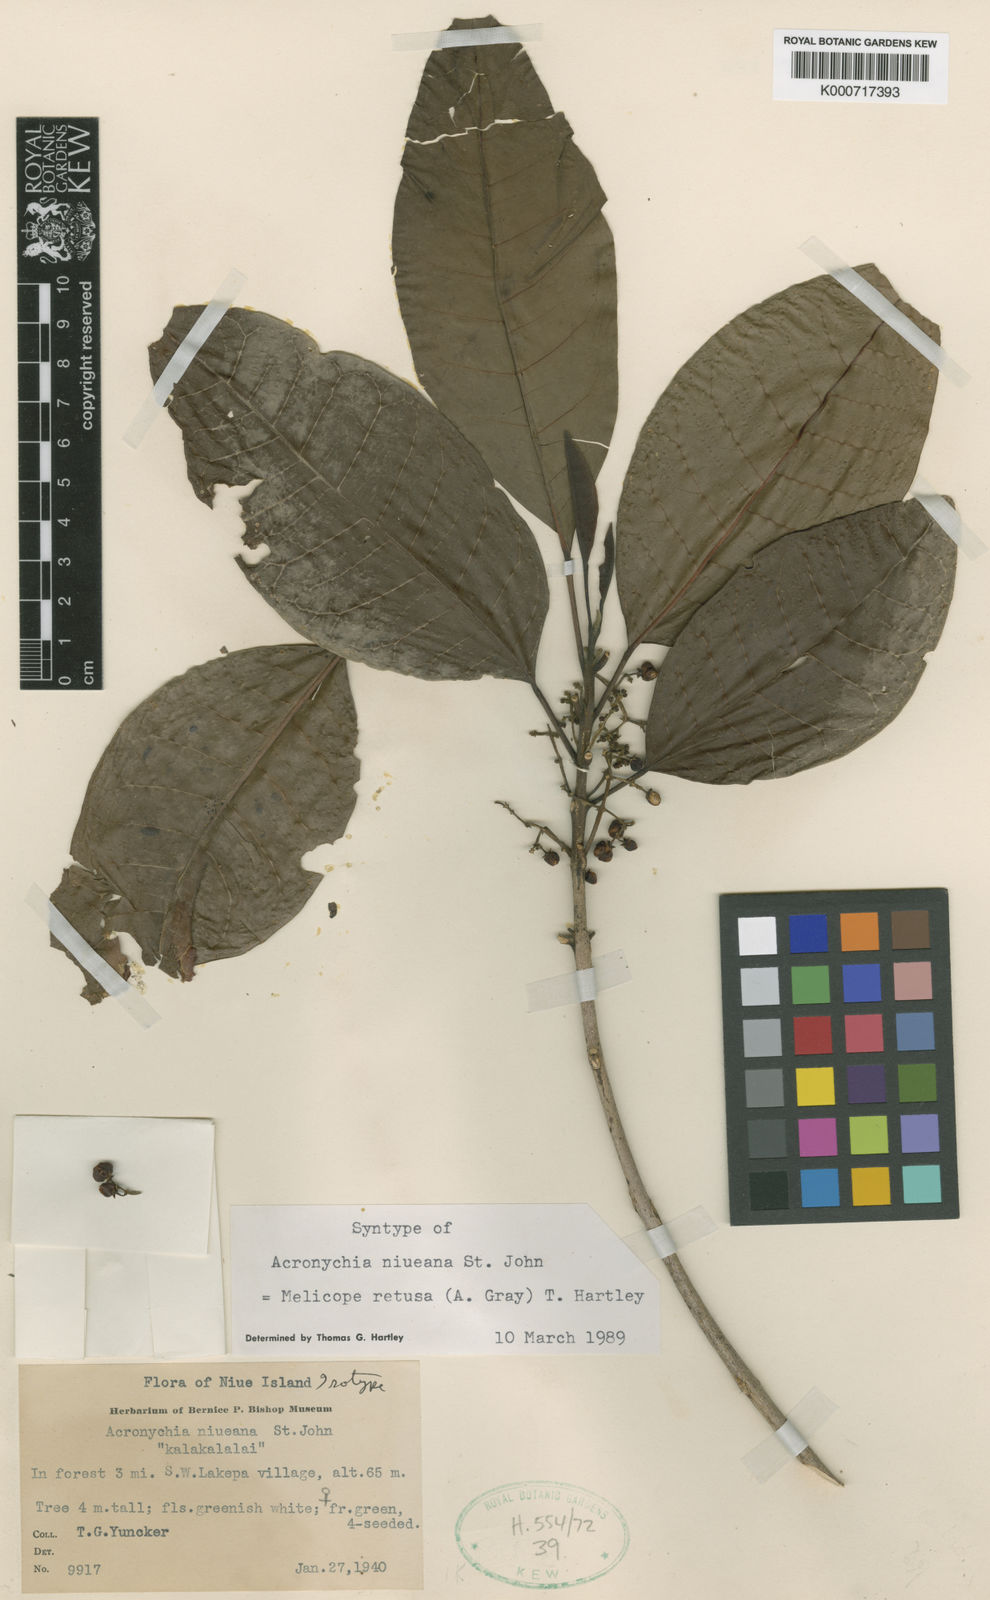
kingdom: Plantae
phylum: Tracheophyta
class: Magnoliopsida
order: Sapindales
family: Rutaceae
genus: Melicope
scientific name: Melicope retusa
